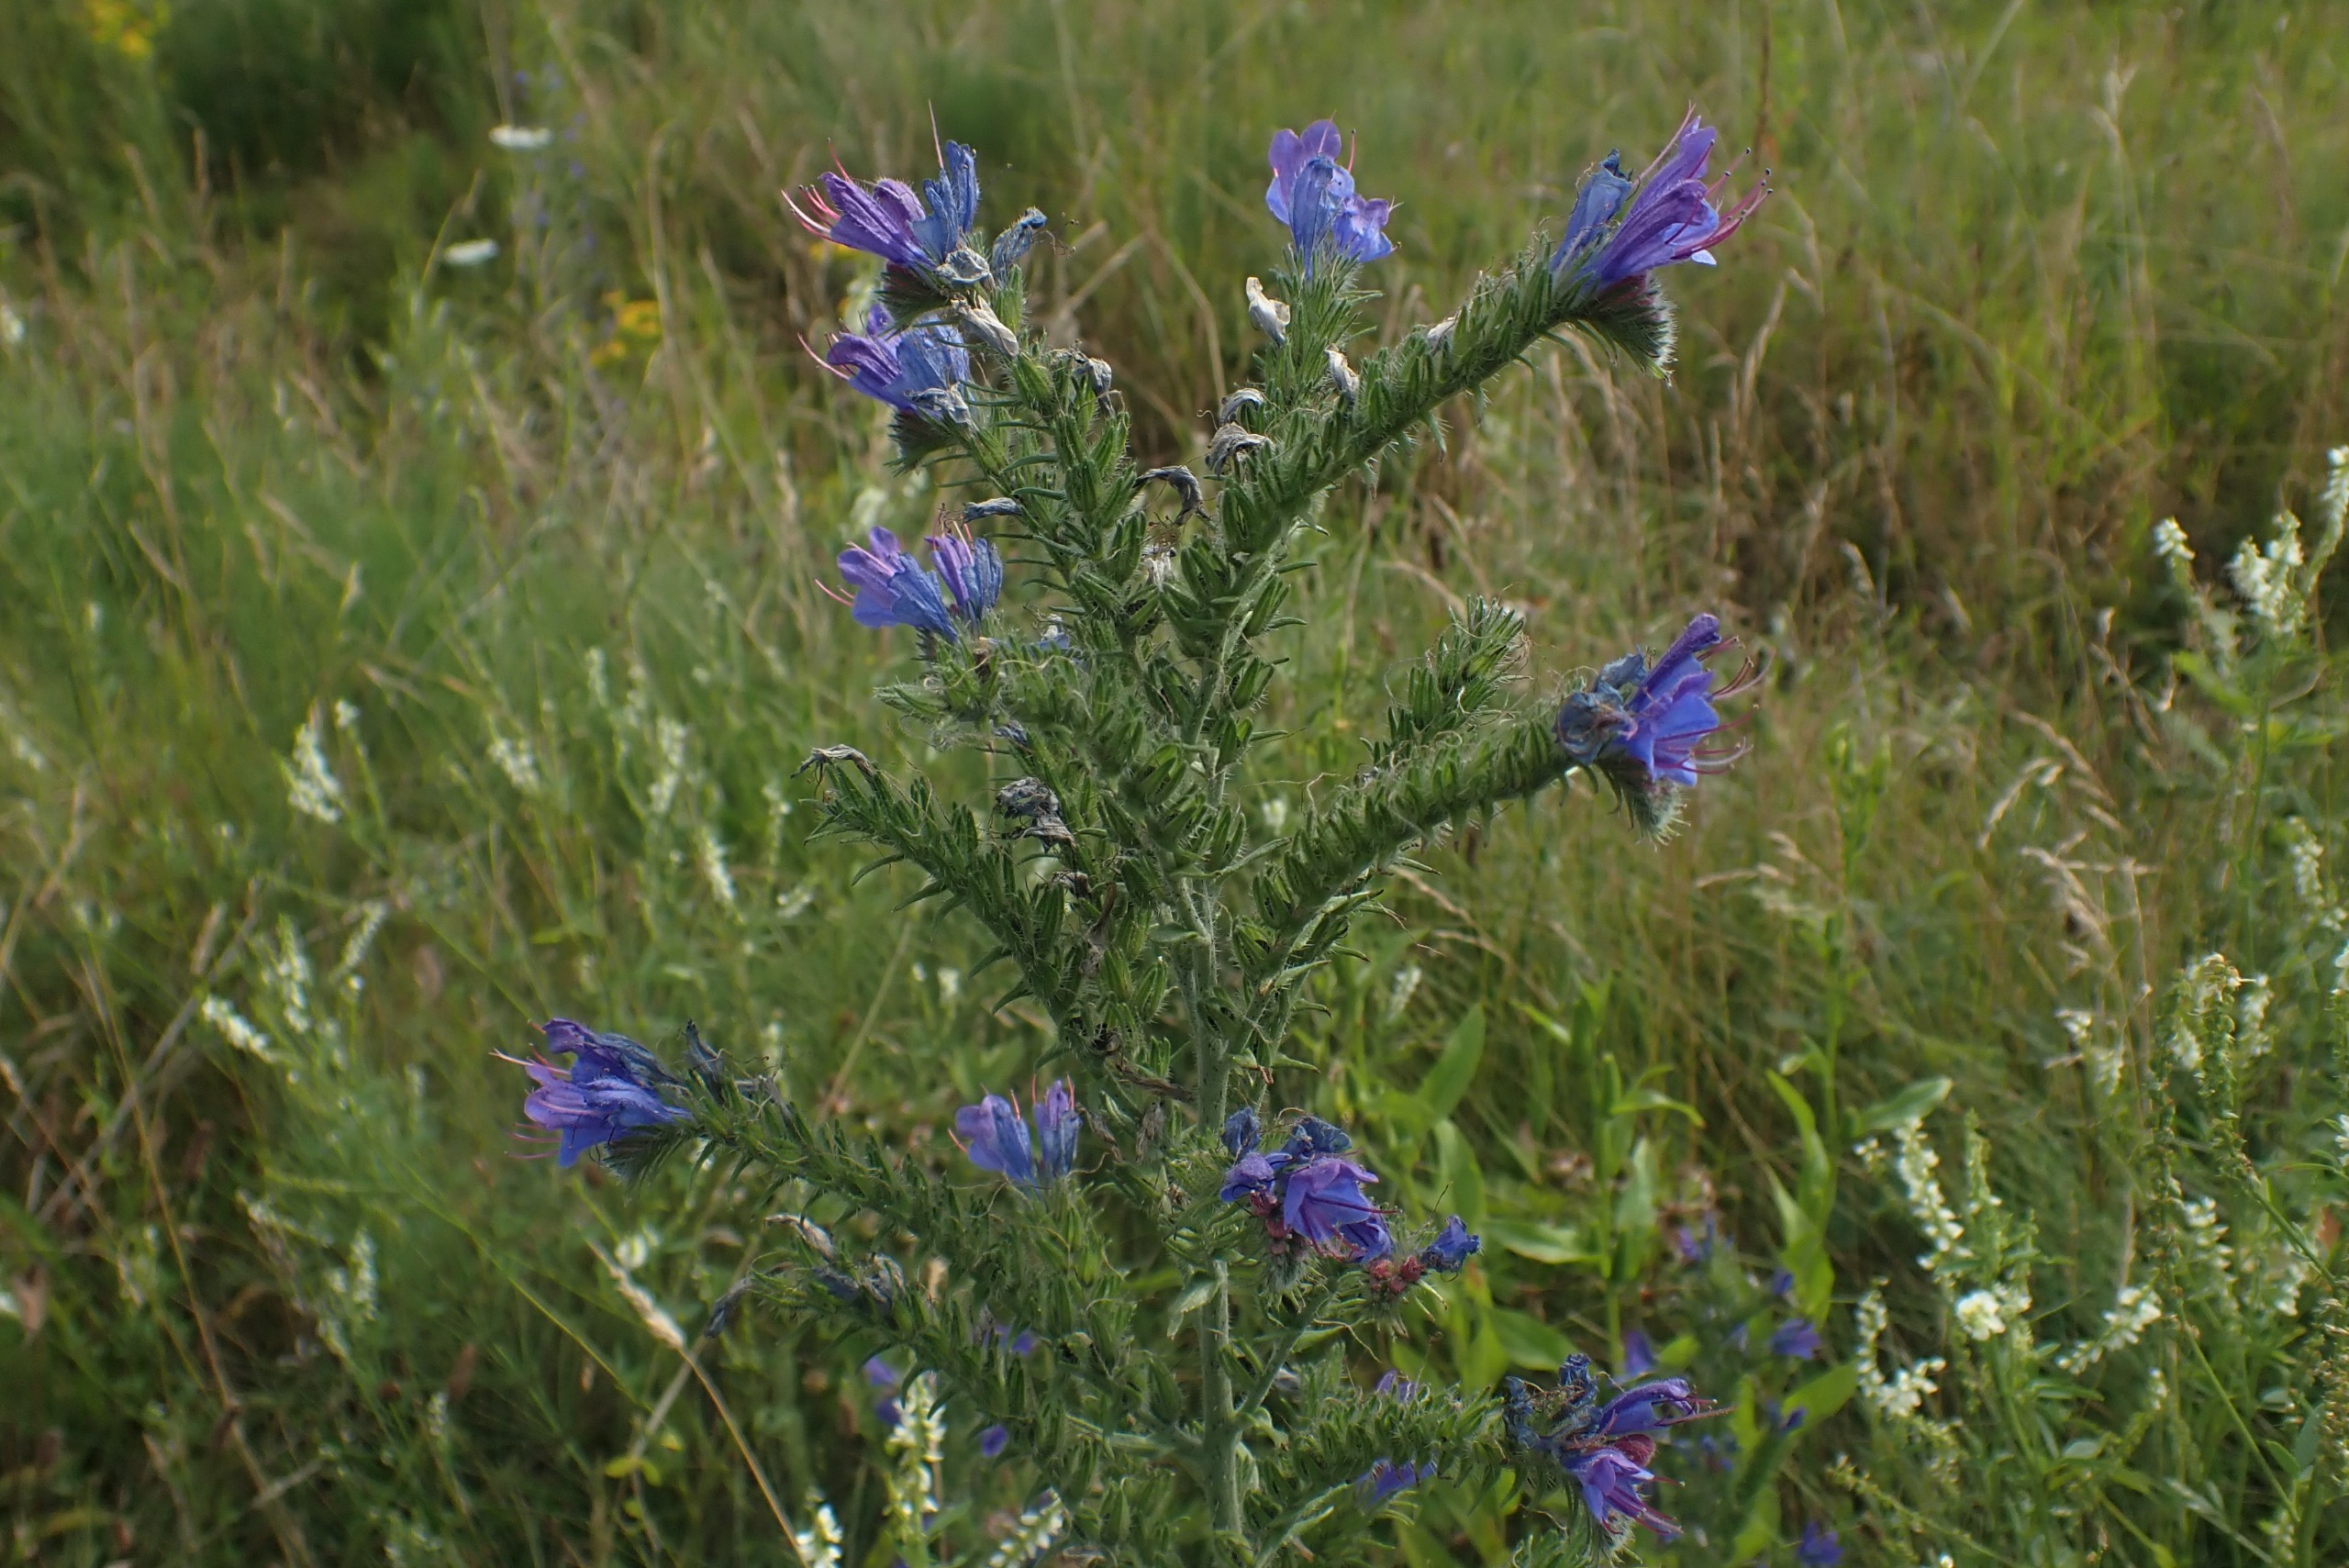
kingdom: Plantae
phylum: Tracheophyta
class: Magnoliopsida
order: Boraginales
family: Boraginaceae
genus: Echium
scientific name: Echium vulgare
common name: Slangehoved
